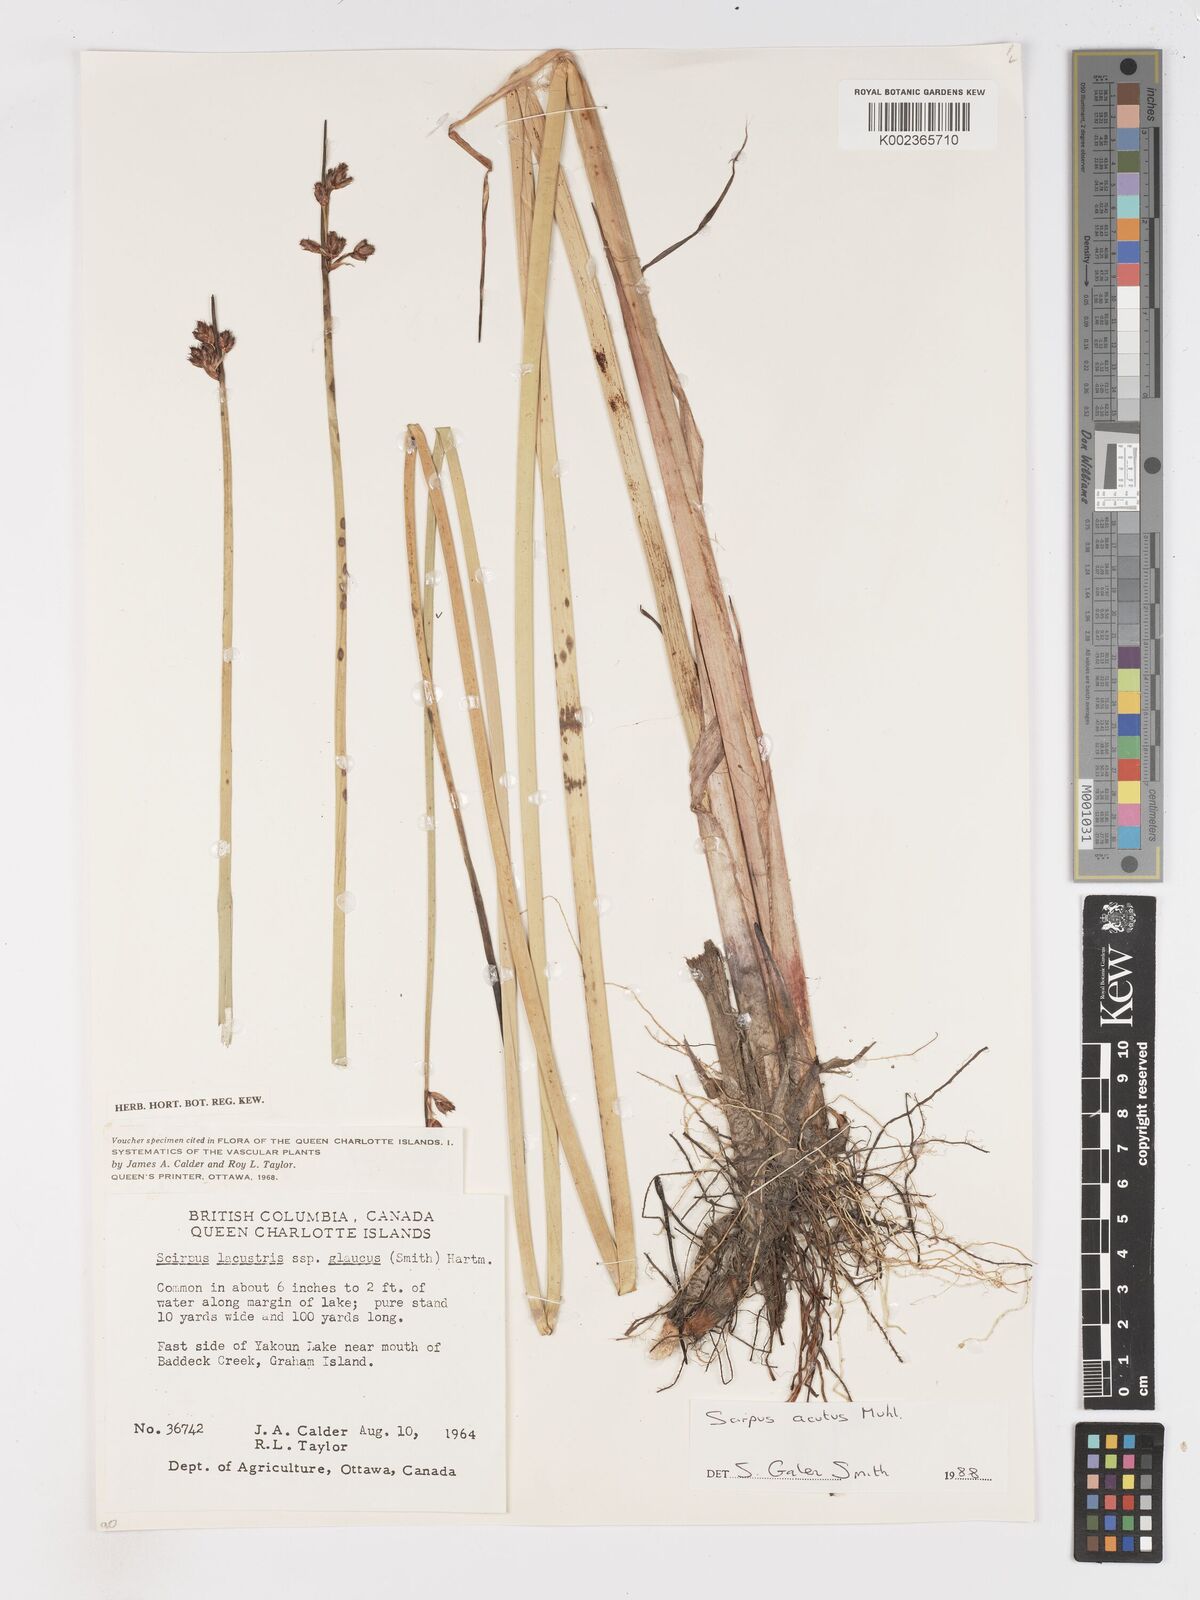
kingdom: Plantae
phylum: Tracheophyta
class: Liliopsida
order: Poales
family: Cyperaceae
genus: Schoenoplectus
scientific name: Schoenoplectus acutus
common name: Hardstem bulrush
